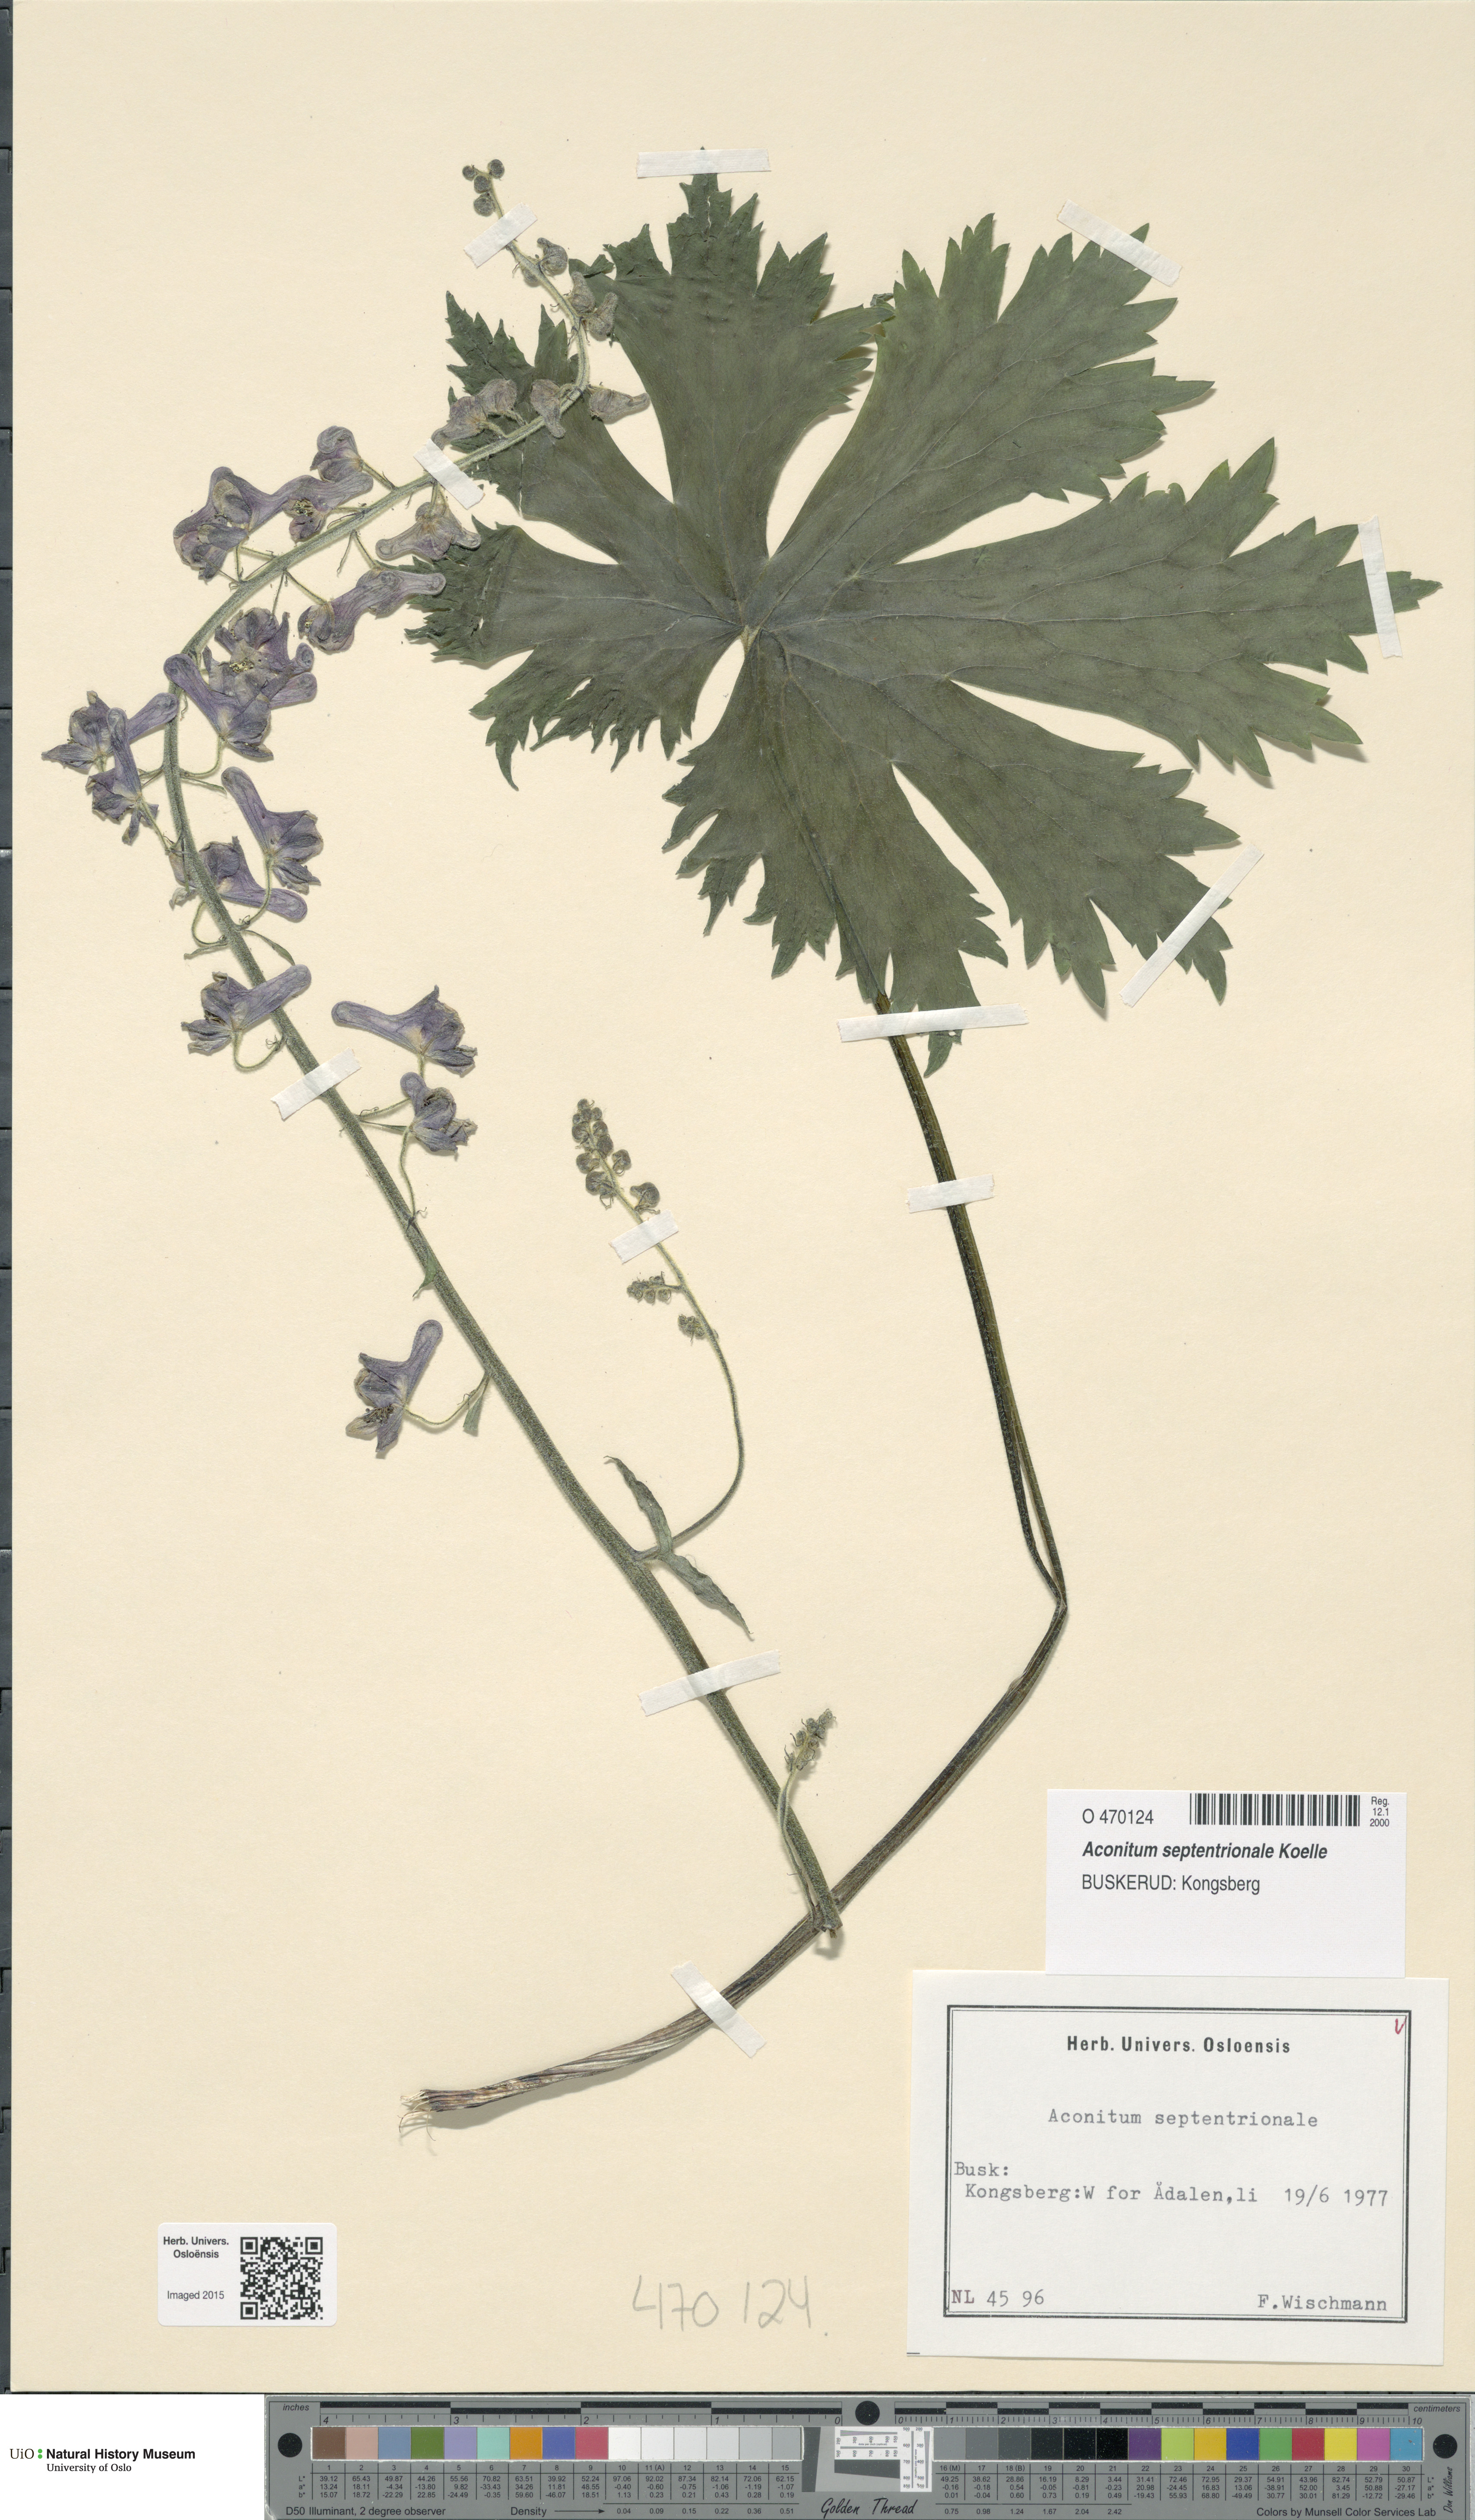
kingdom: Plantae
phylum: Tracheophyta
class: Magnoliopsida
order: Ranunculales
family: Ranunculaceae
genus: Aconitum
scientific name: Aconitum septentrionale
